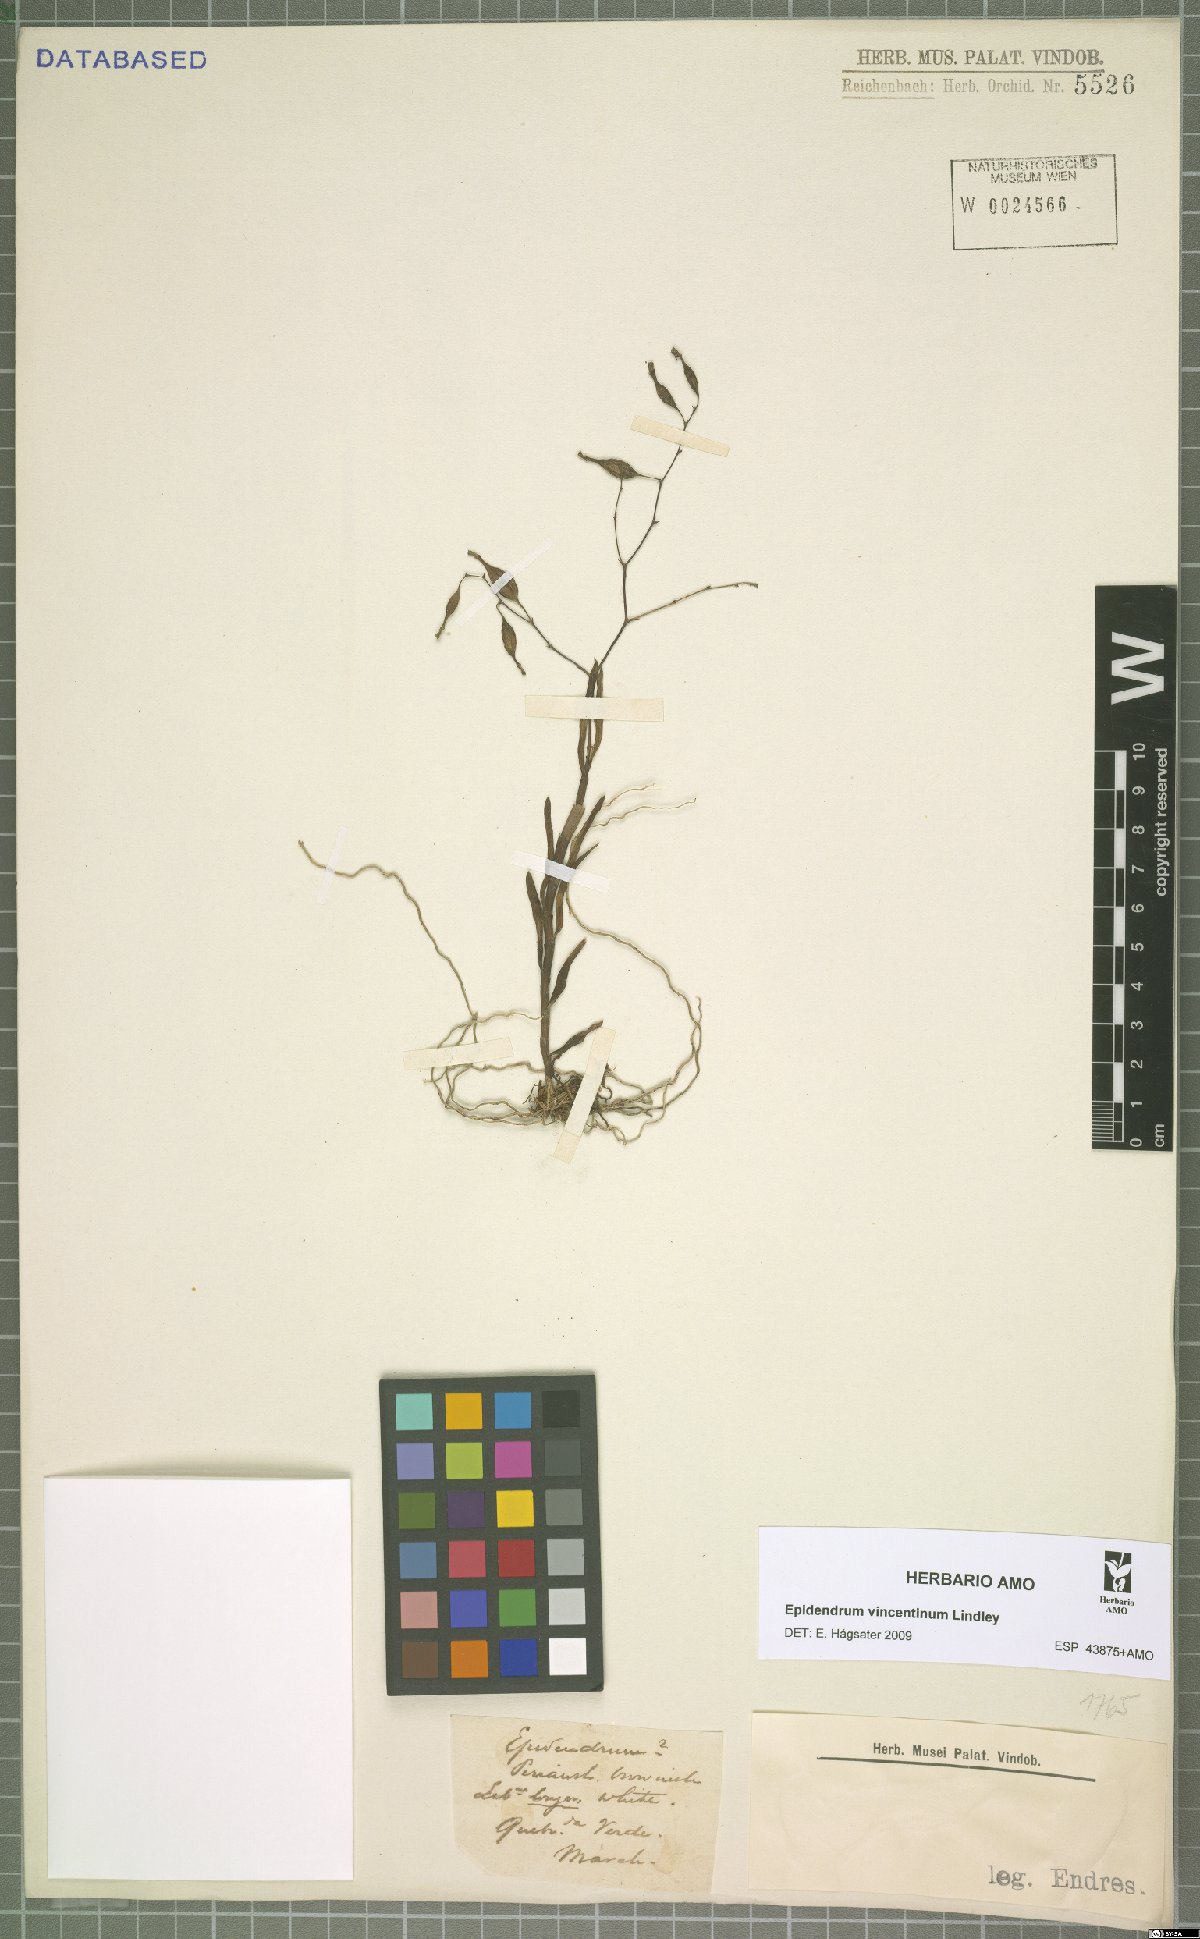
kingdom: Plantae
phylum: Tracheophyta
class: Liliopsida
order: Asparagales
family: Orchidaceae
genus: Epidendrum
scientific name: Epidendrum vincentinum
